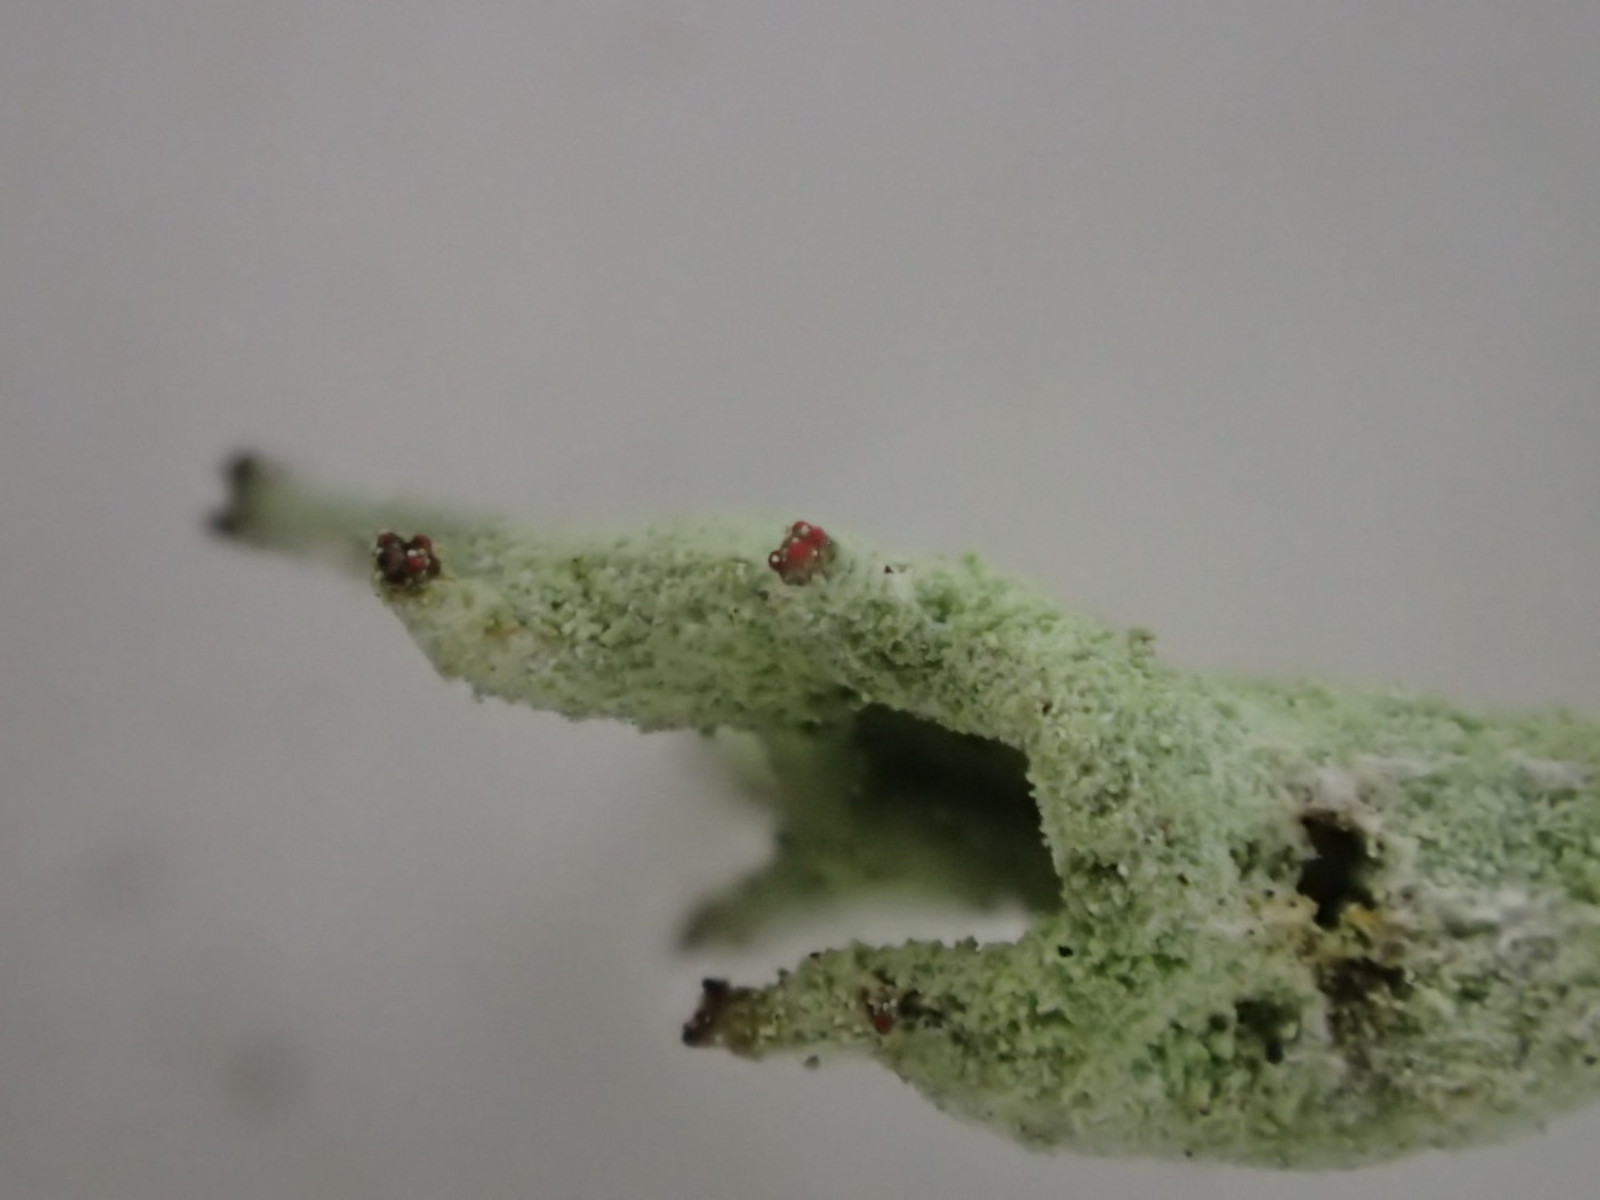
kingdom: Fungi
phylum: Ascomycota
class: Lecanoromycetes
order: Lecanorales
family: Cladoniaceae
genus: Cladonia
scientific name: Cladonia sulphurina
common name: opblæst bægerlav
